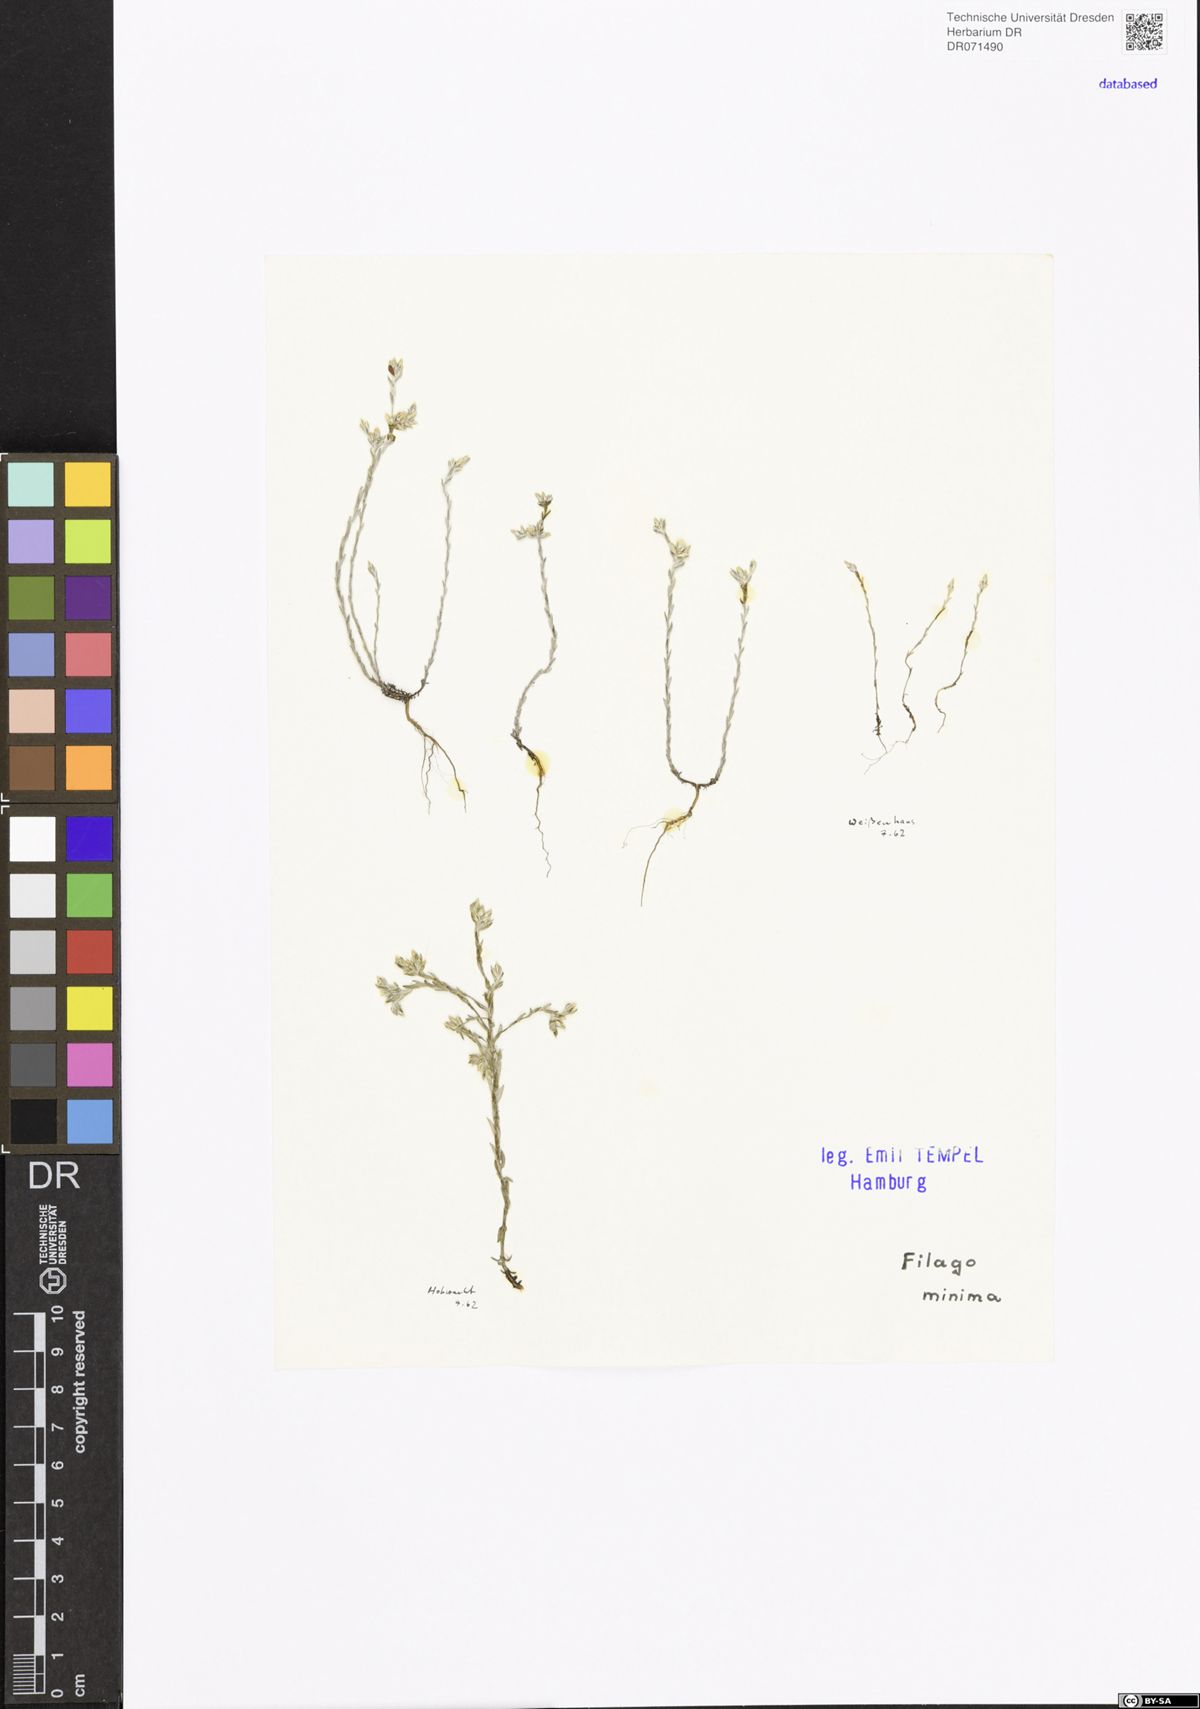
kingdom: Plantae
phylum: Tracheophyta
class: Magnoliopsida
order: Asterales
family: Asteraceae
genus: Logfia
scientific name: Logfia minima
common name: Little cottonrose
